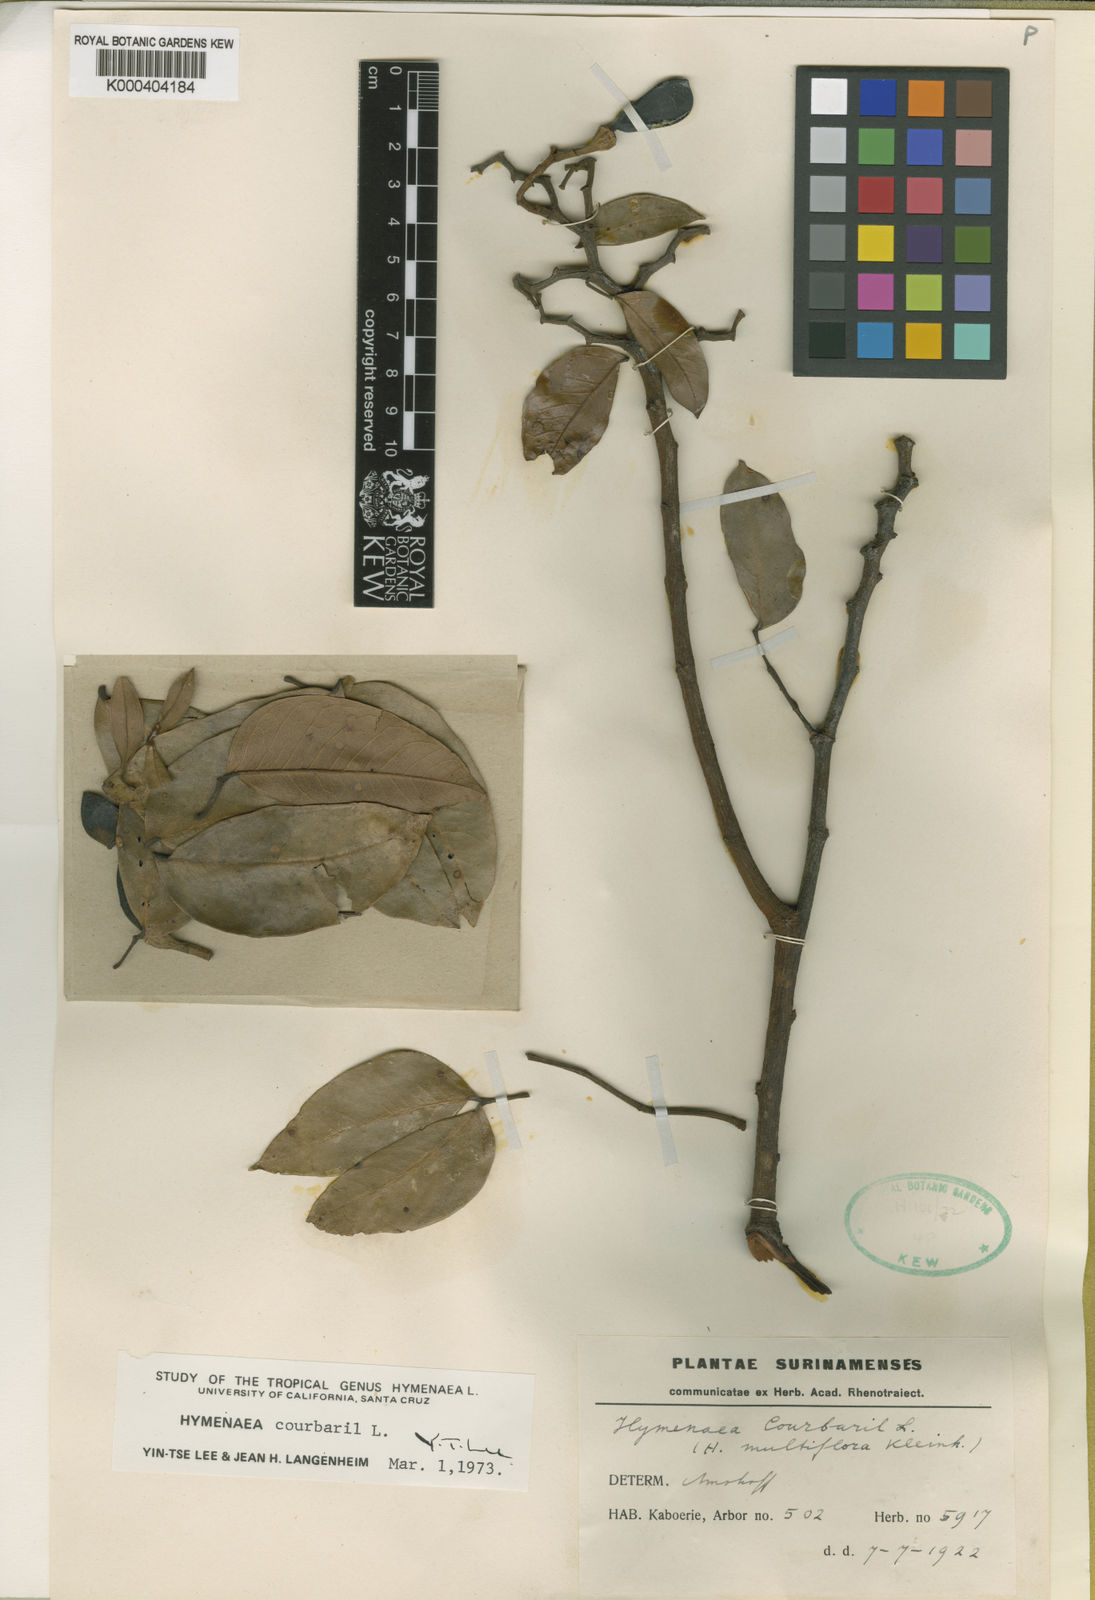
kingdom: Plantae
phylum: Tracheophyta
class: Magnoliopsida
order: Fabales
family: Fabaceae
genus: Hymenaea
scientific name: Hymenaea courbaril
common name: Brazilian copal
